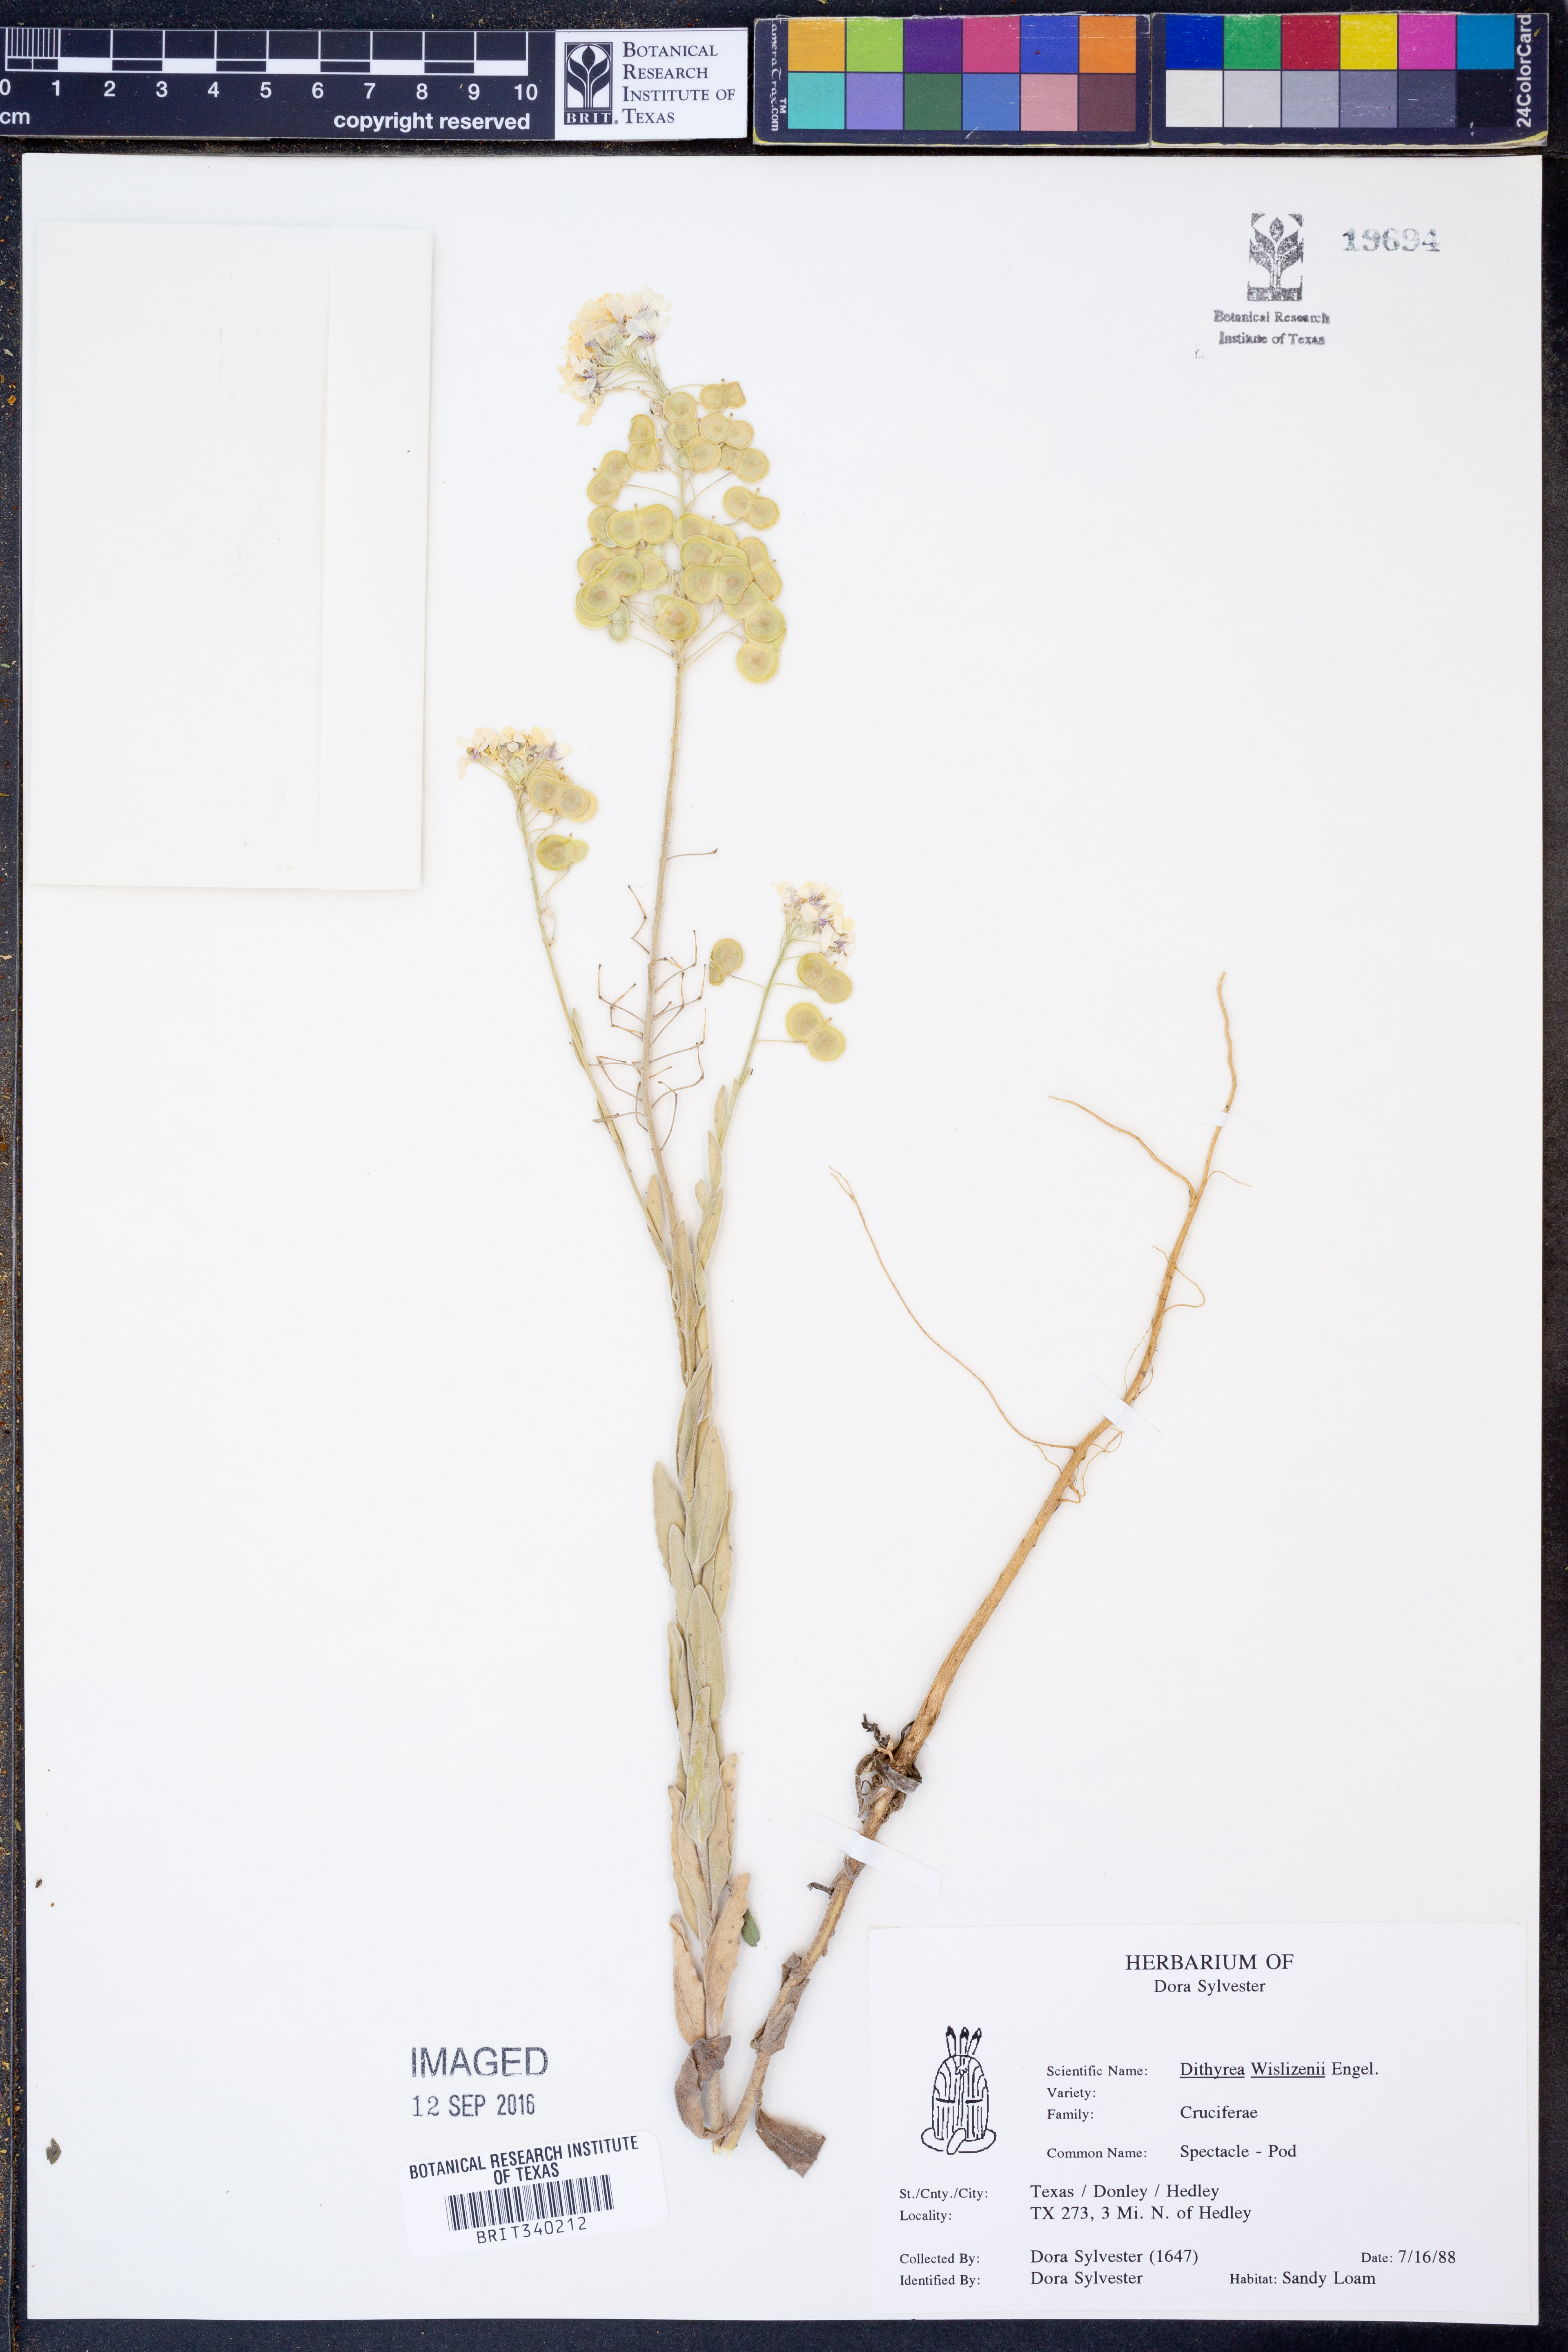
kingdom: Plantae
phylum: Tracheophyta
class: Magnoliopsida
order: Brassicales
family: Brassicaceae
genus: Dimorphocarpa
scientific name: Dimorphocarpa wislizenii
